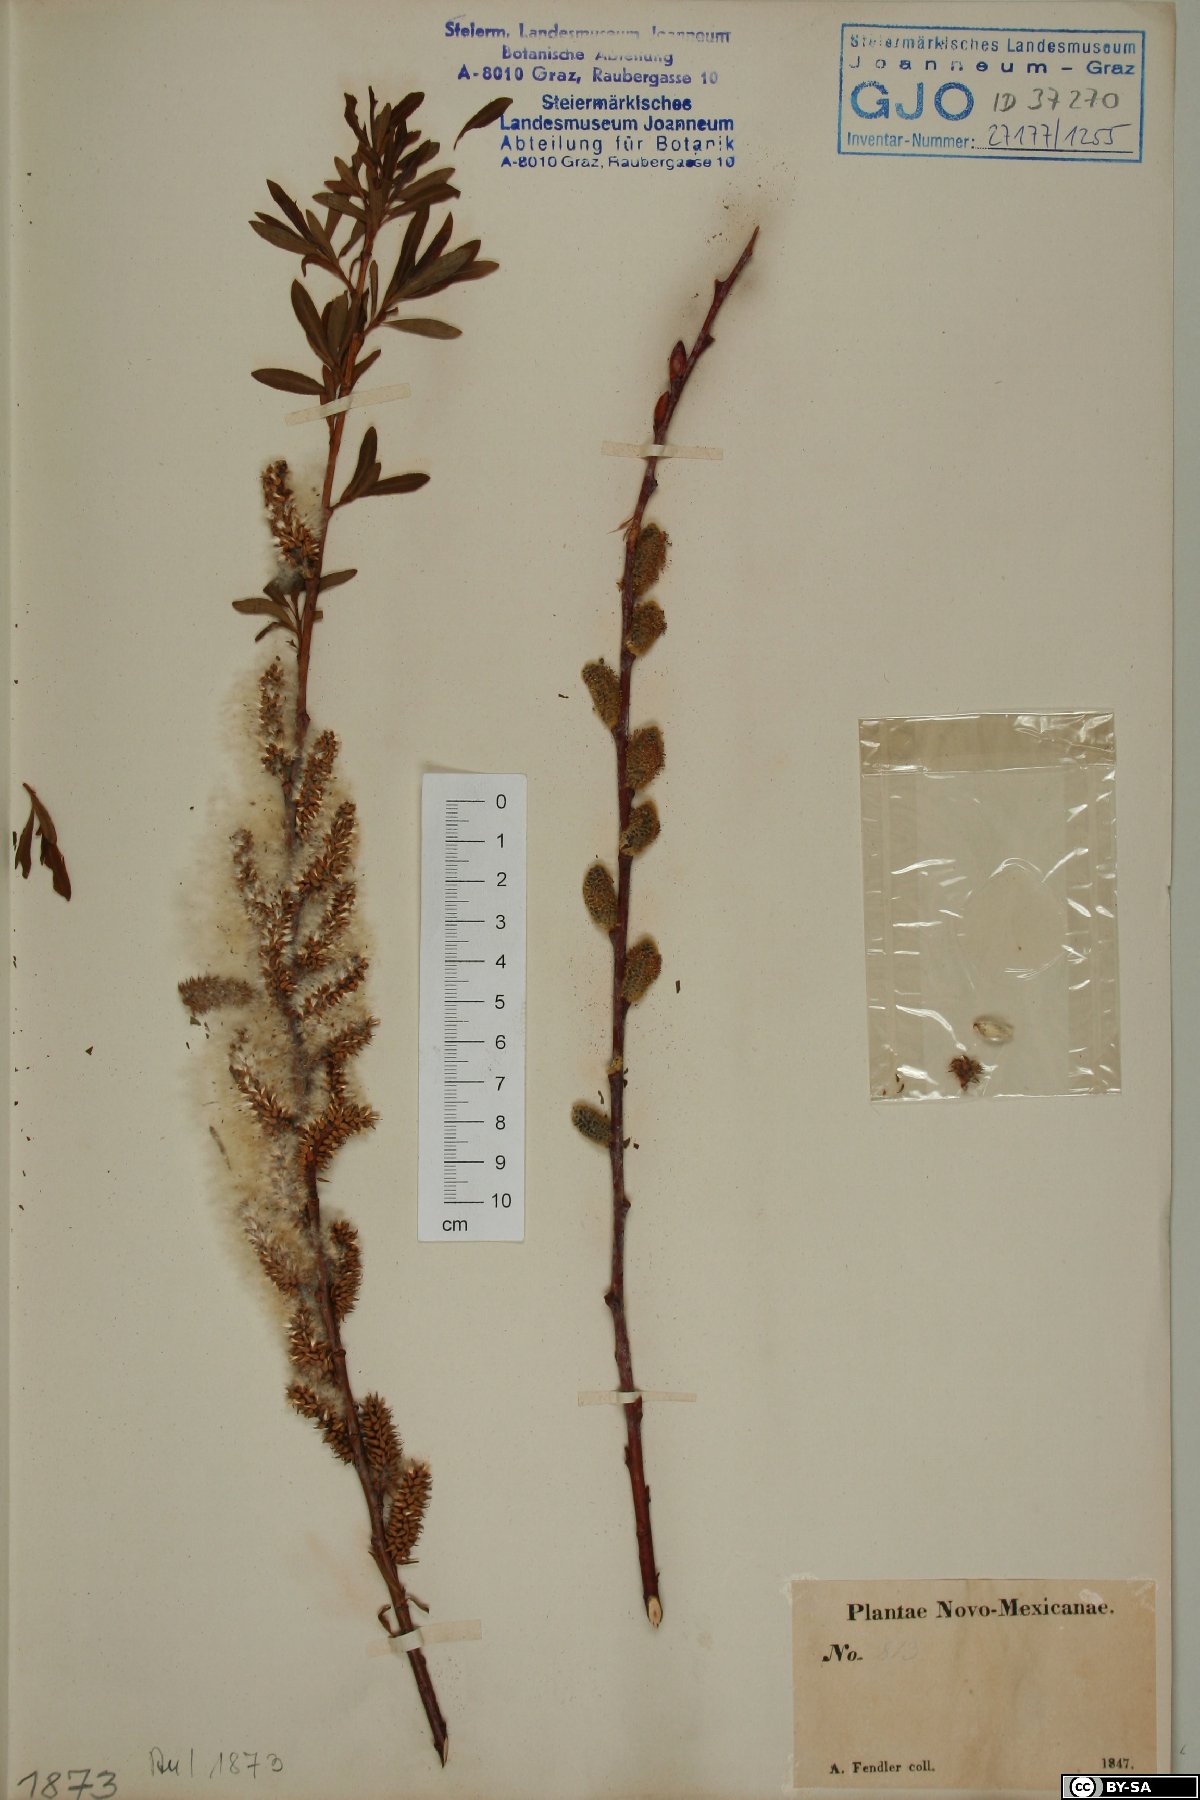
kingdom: Plantae
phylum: Tracheophyta
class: Magnoliopsida
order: Malpighiales
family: Salicaceae
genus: Salix
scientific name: Salix
